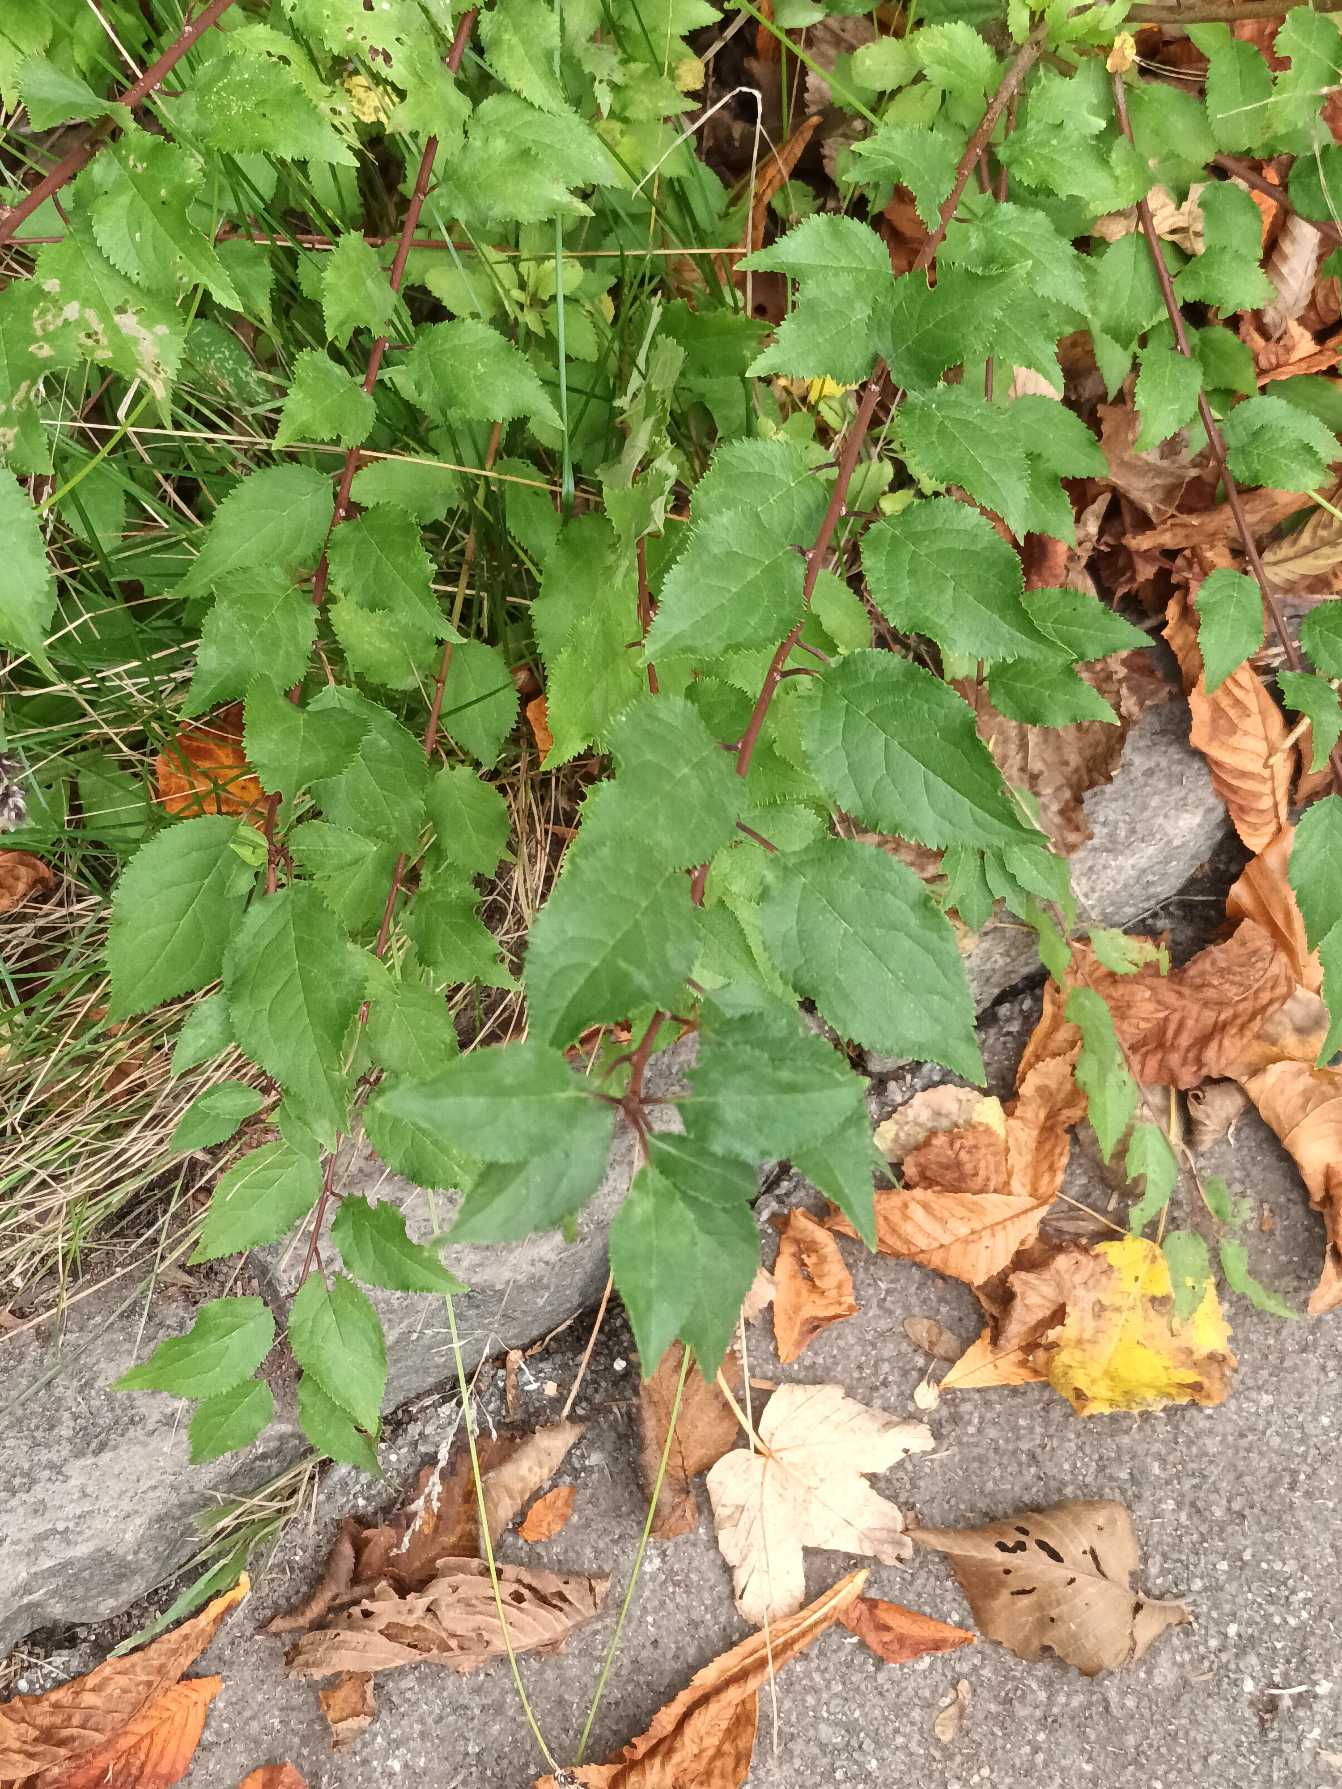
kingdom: Plantae
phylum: Tracheophyta
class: Magnoliopsida
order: Rosales
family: Rosaceae
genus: Prunus
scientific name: Prunus cerasifera
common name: Mirabel
